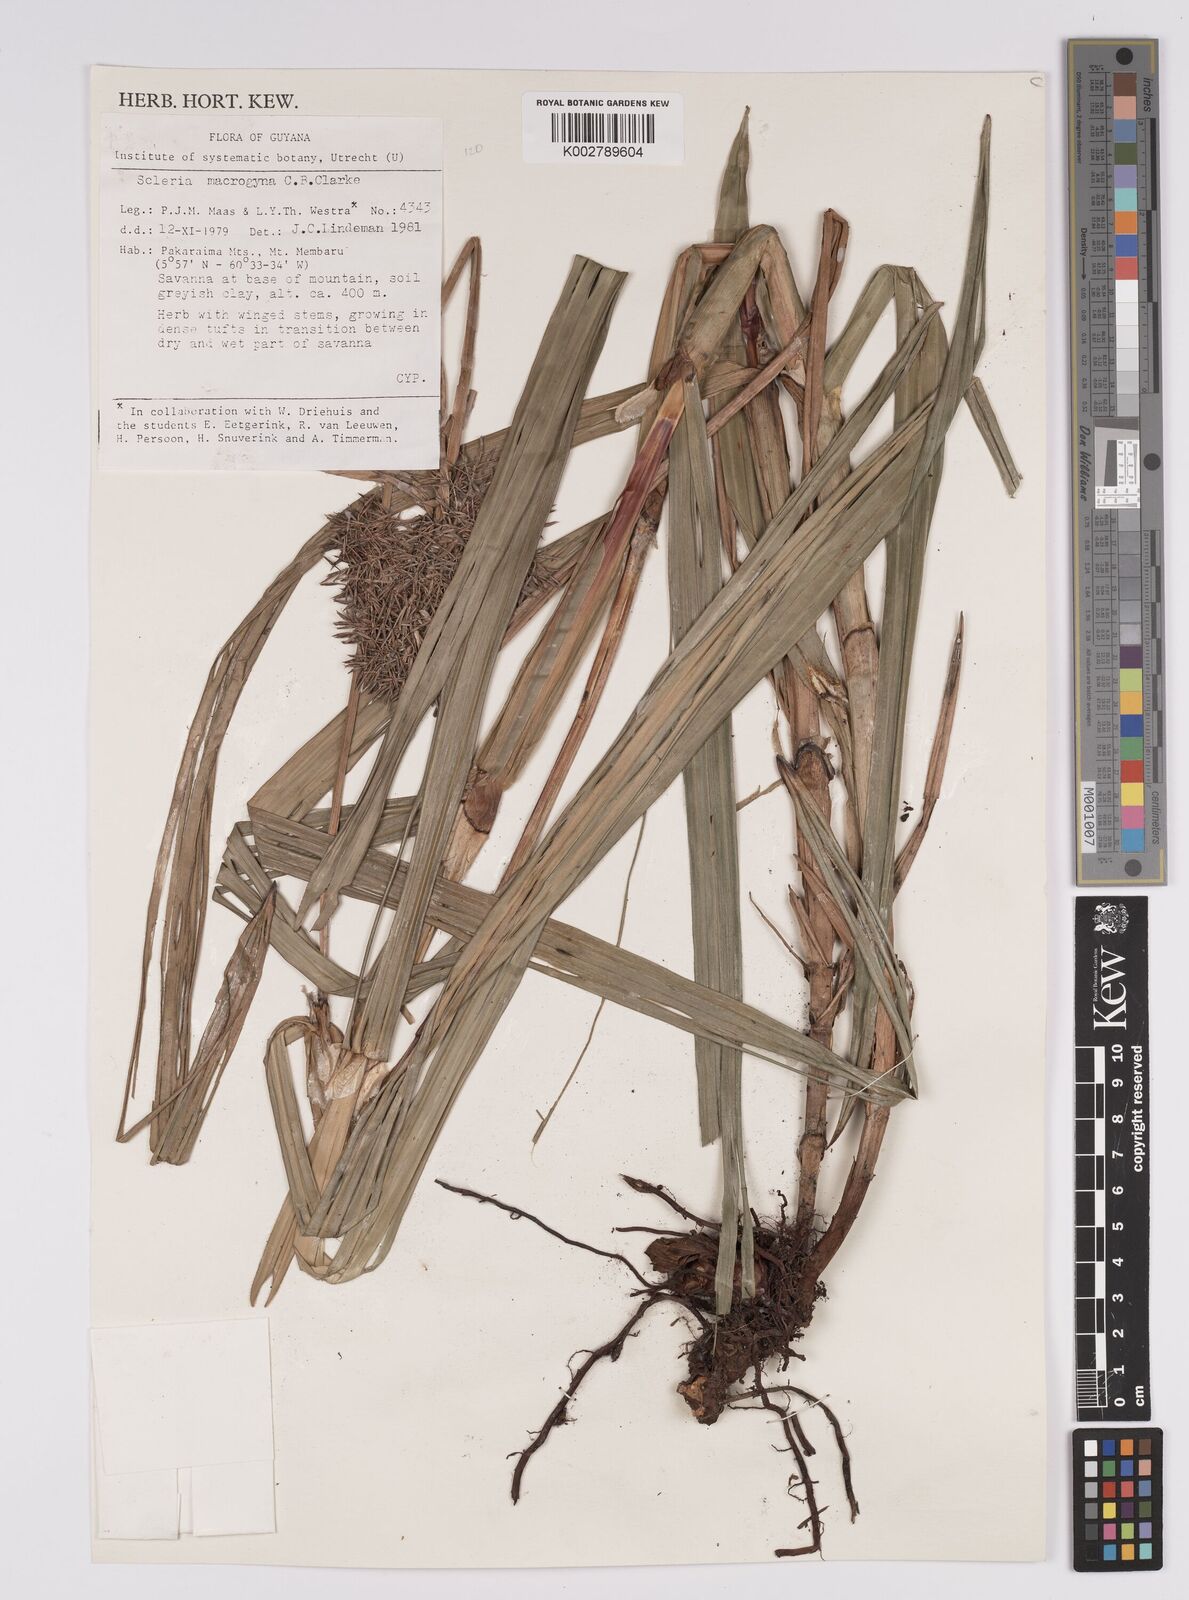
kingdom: Plantae
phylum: Tracheophyta
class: Liliopsida
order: Poales
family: Cyperaceae
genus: Scleria
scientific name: Scleria macrogyne
